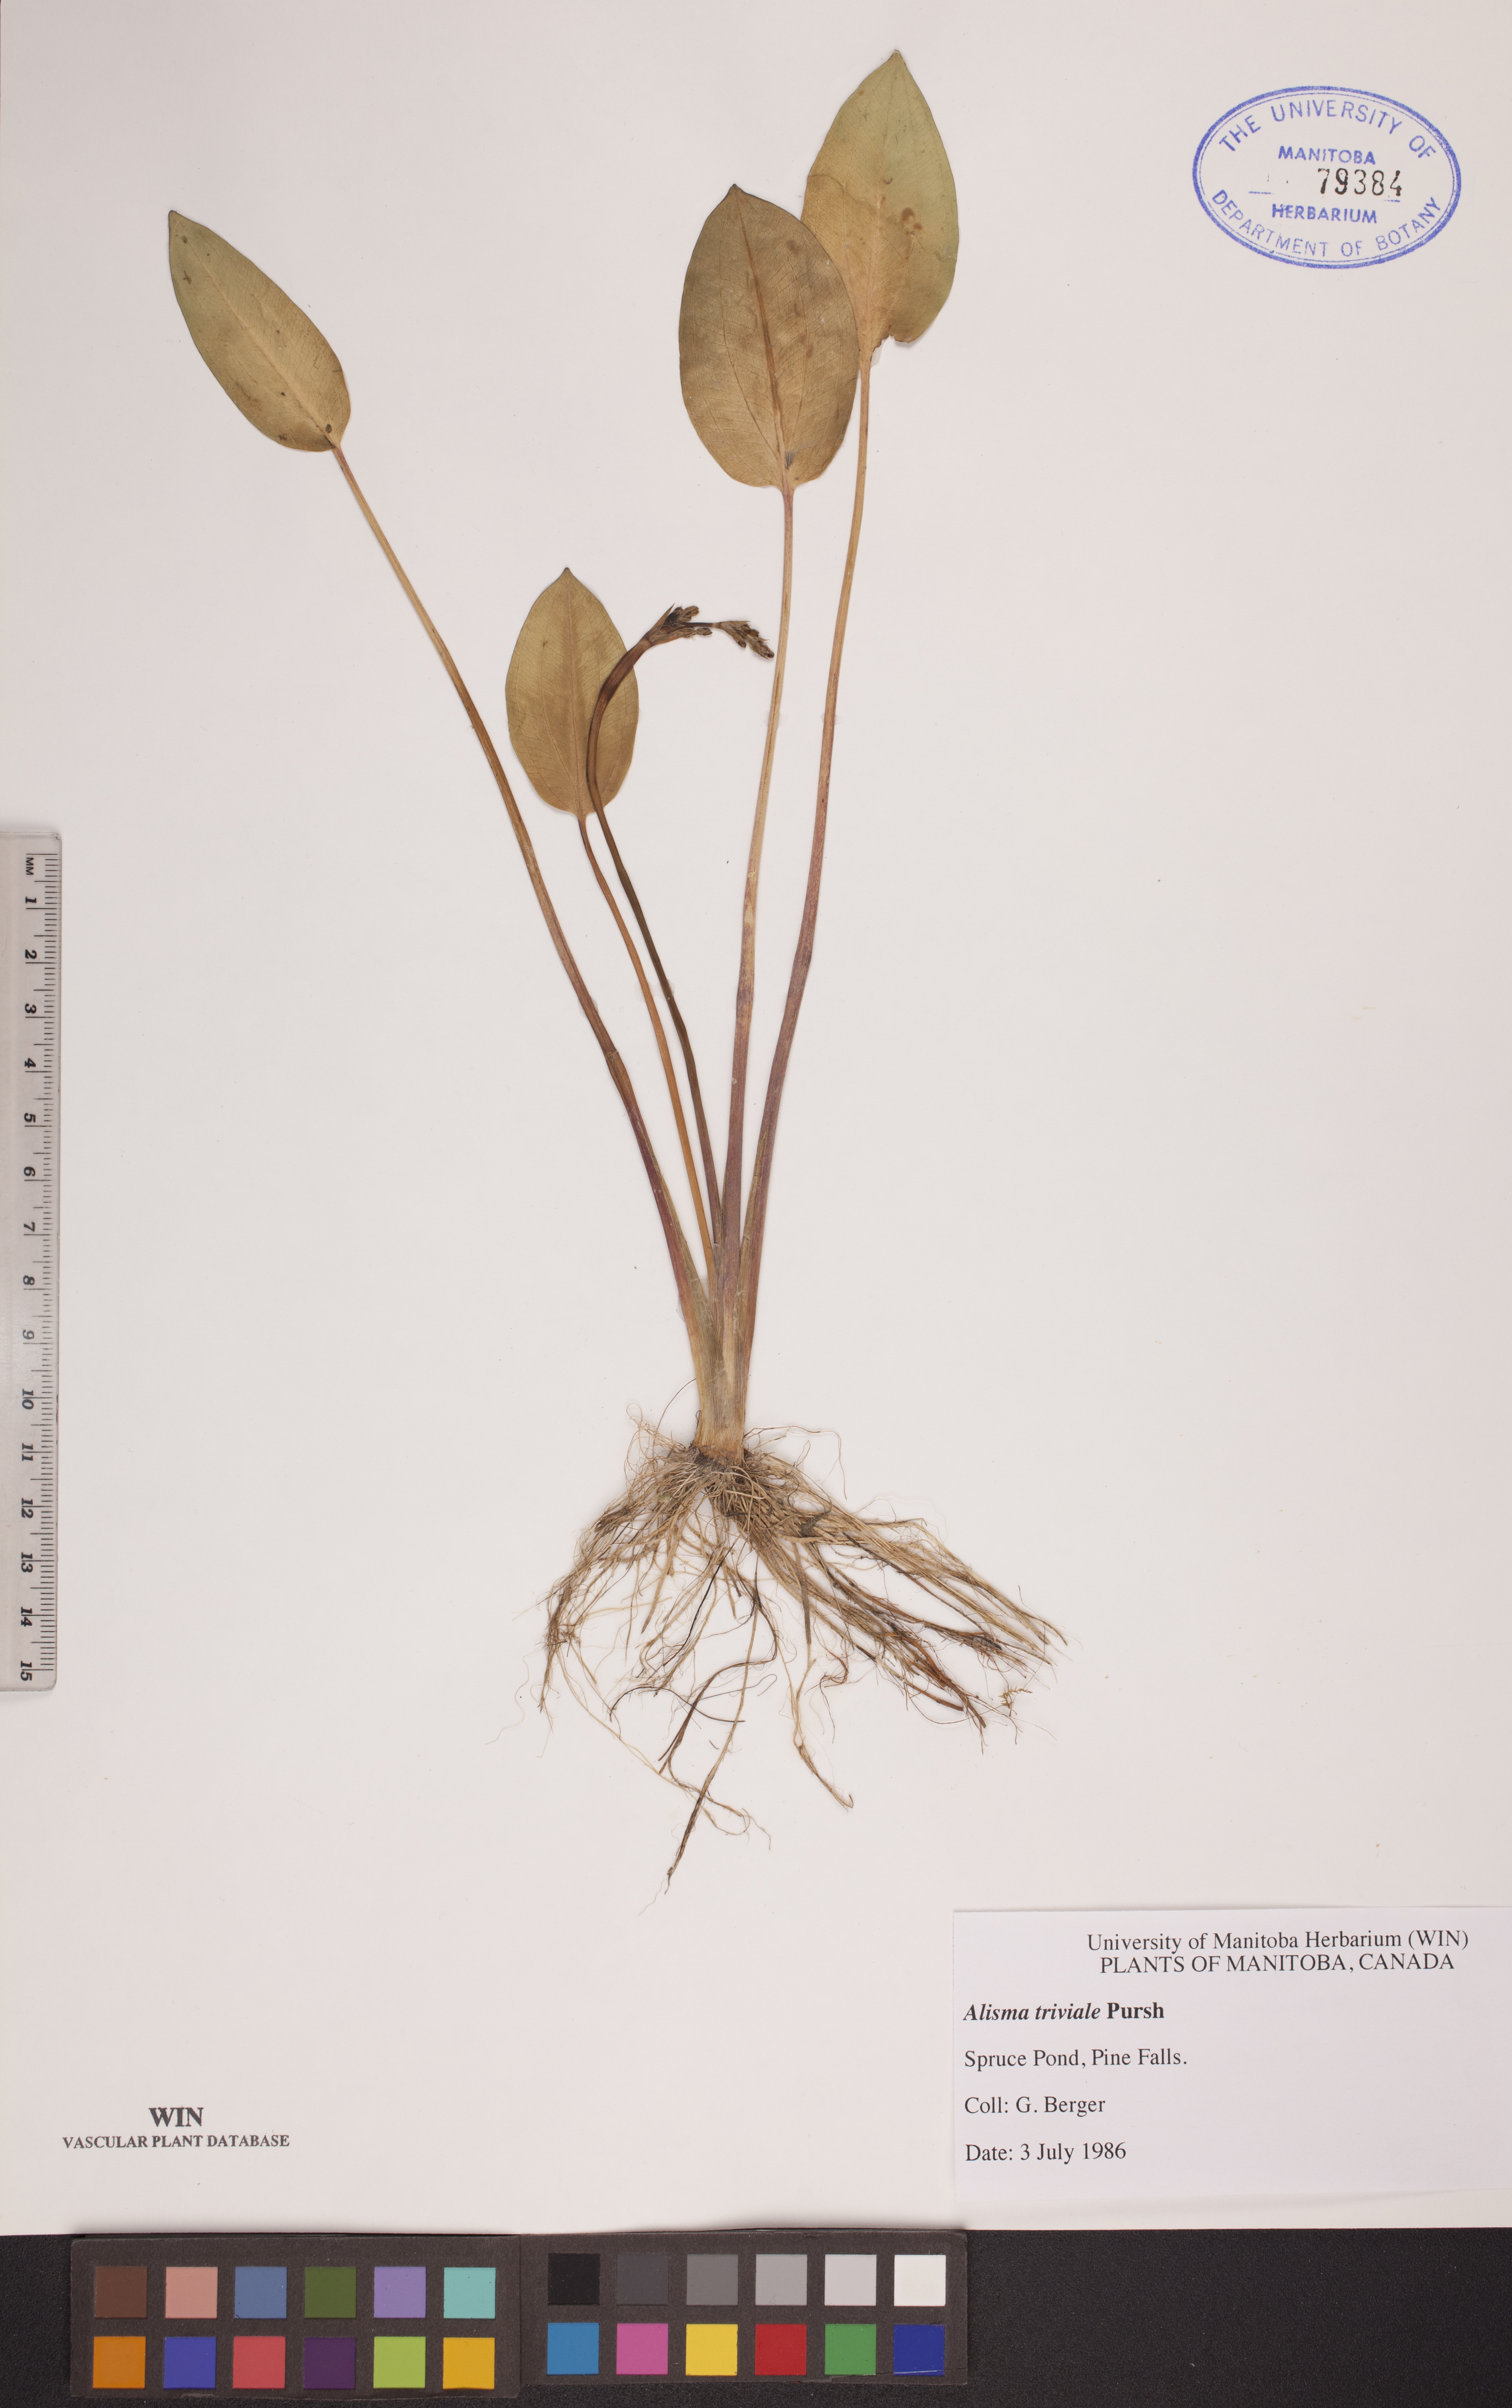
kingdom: Plantae
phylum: Tracheophyta
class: Liliopsida
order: Alismatales
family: Alismataceae
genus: Alisma
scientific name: Alisma triviale
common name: Northern water-plantain
